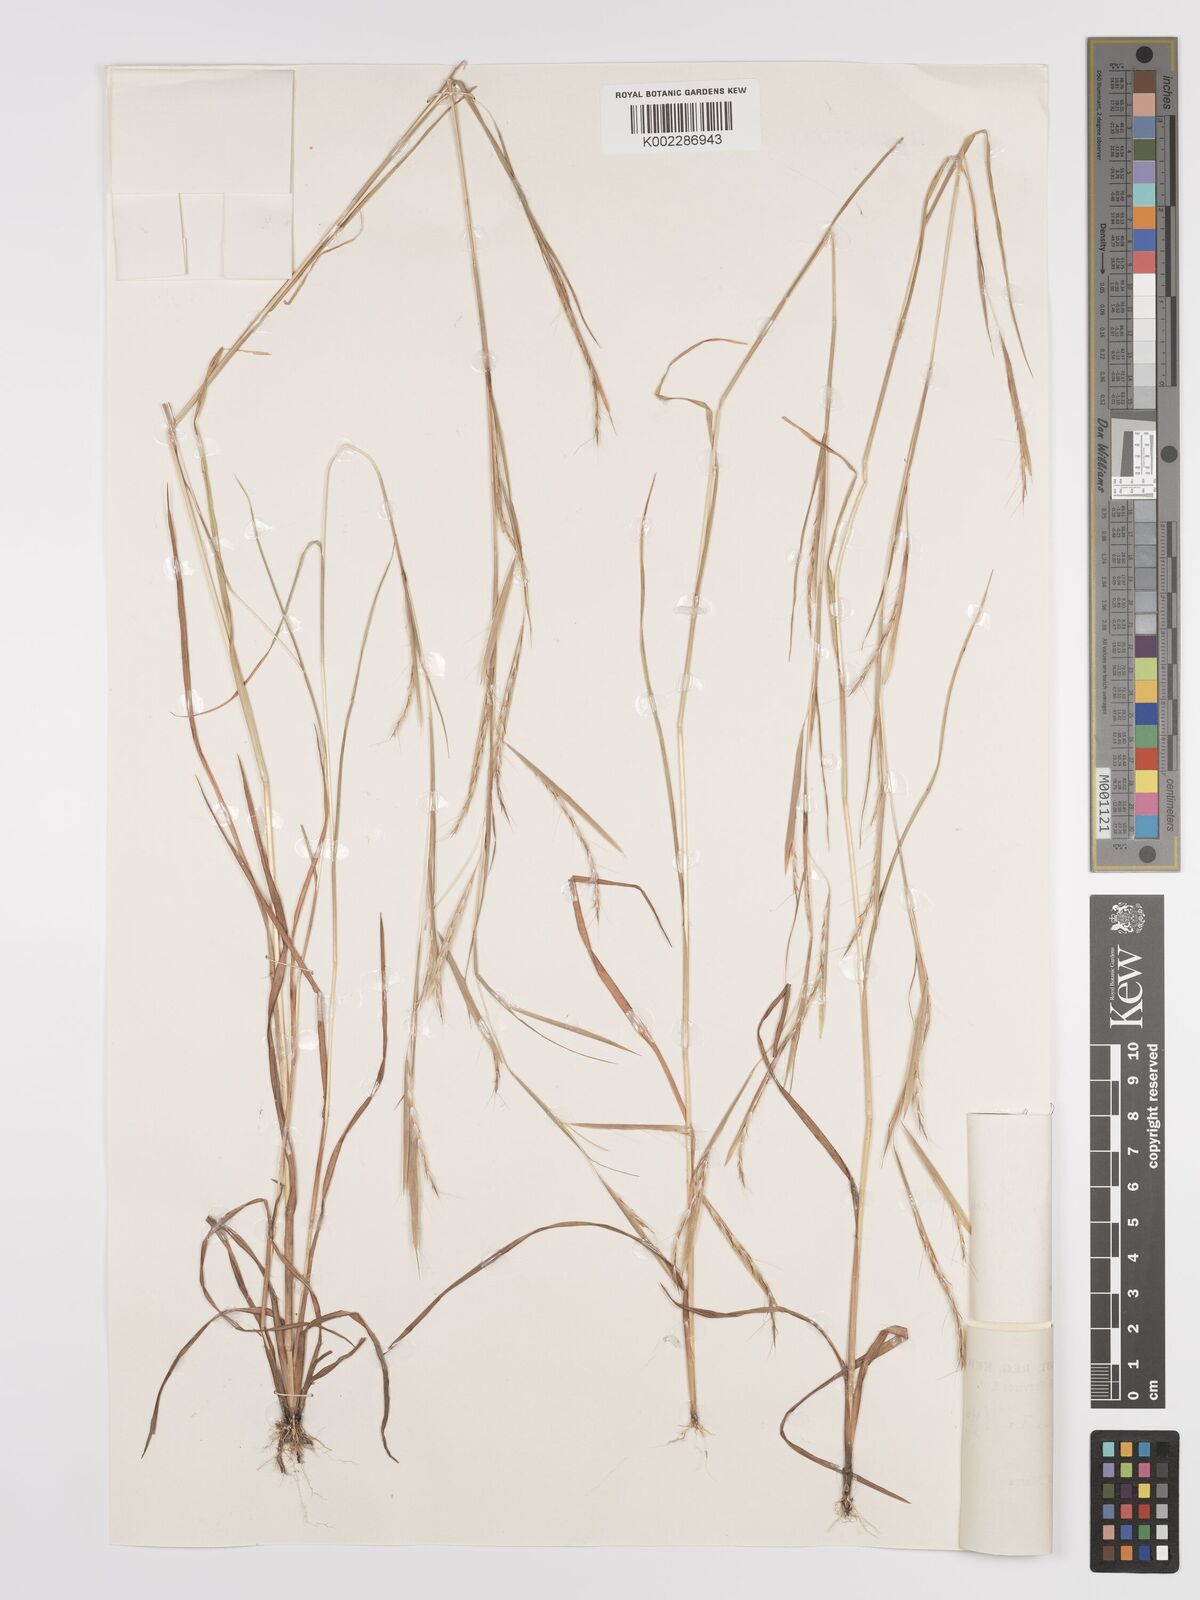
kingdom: Plantae
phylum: Tracheophyta
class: Liliopsida
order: Poales
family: Poaceae
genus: Schizachyrium
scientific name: Schizachyrium exile
